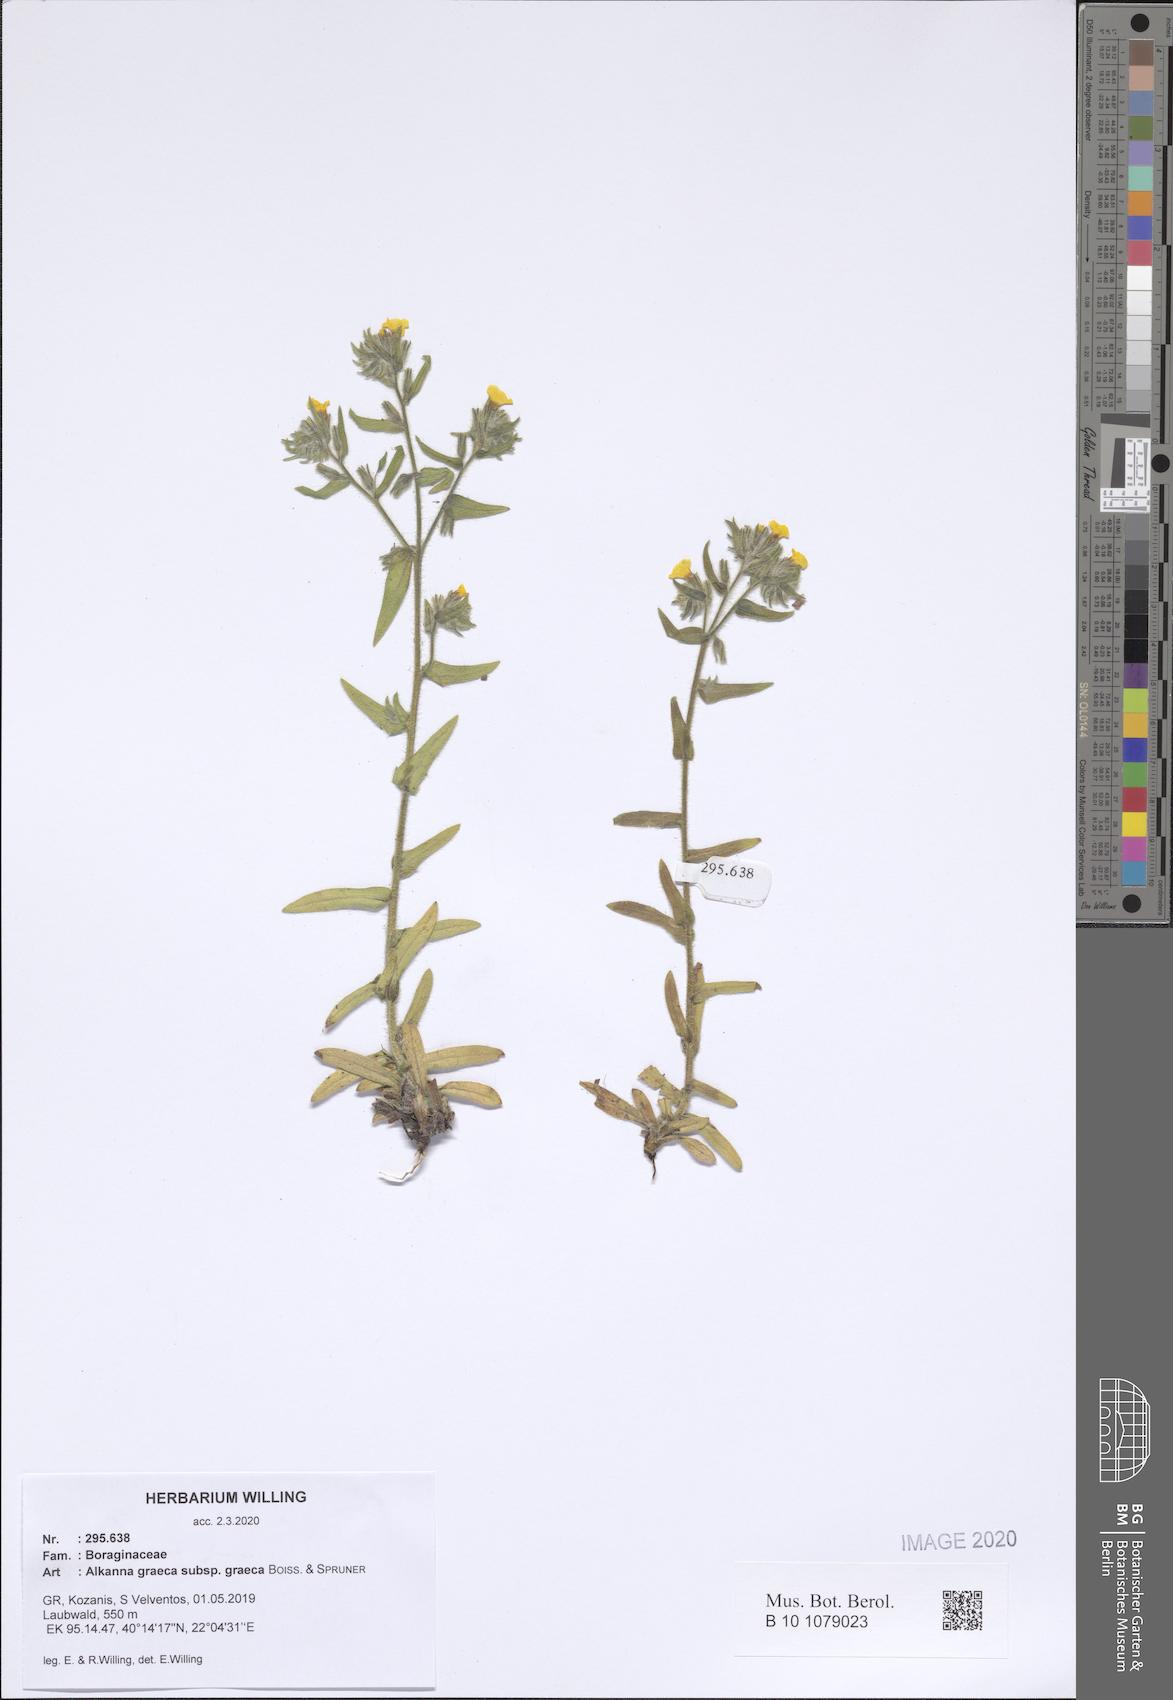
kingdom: Plantae
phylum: Tracheophyta
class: Magnoliopsida
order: Boraginales
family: Boraginaceae
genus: Alkanna
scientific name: Alkanna graeca
